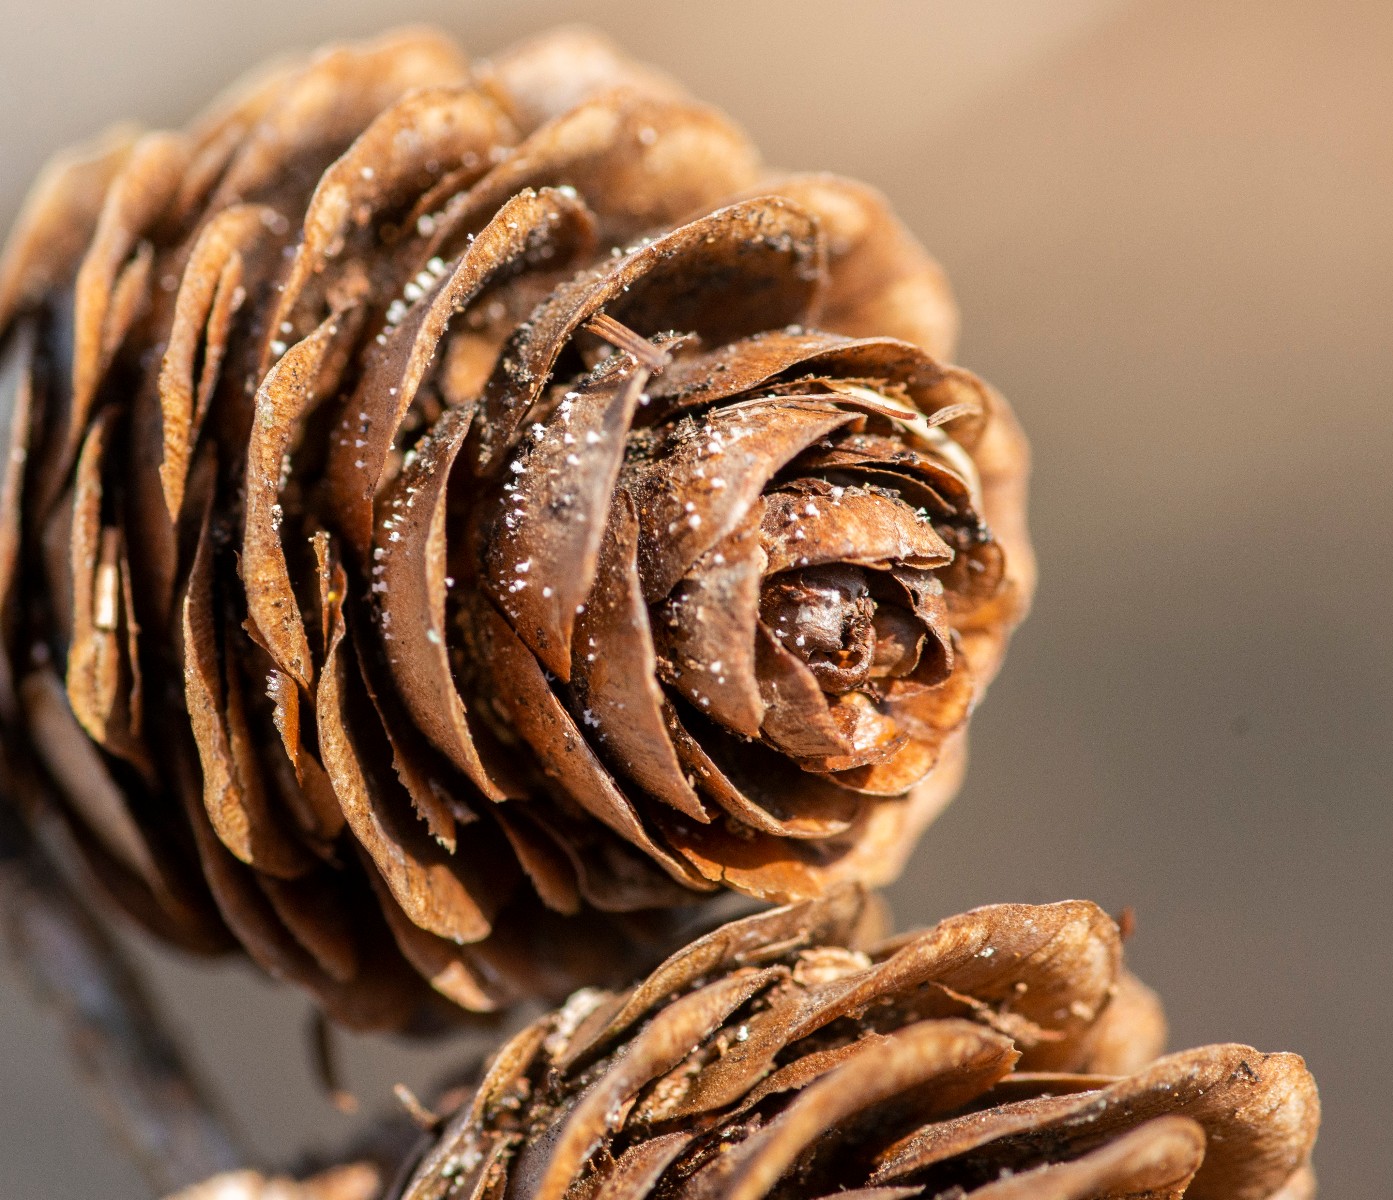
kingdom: Fungi
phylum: Ascomycota
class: Leotiomycetes
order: Helotiales
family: Lachnaceae
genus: Lachnum
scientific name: Lachnum virgineum
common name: jomfru-frynseskive
